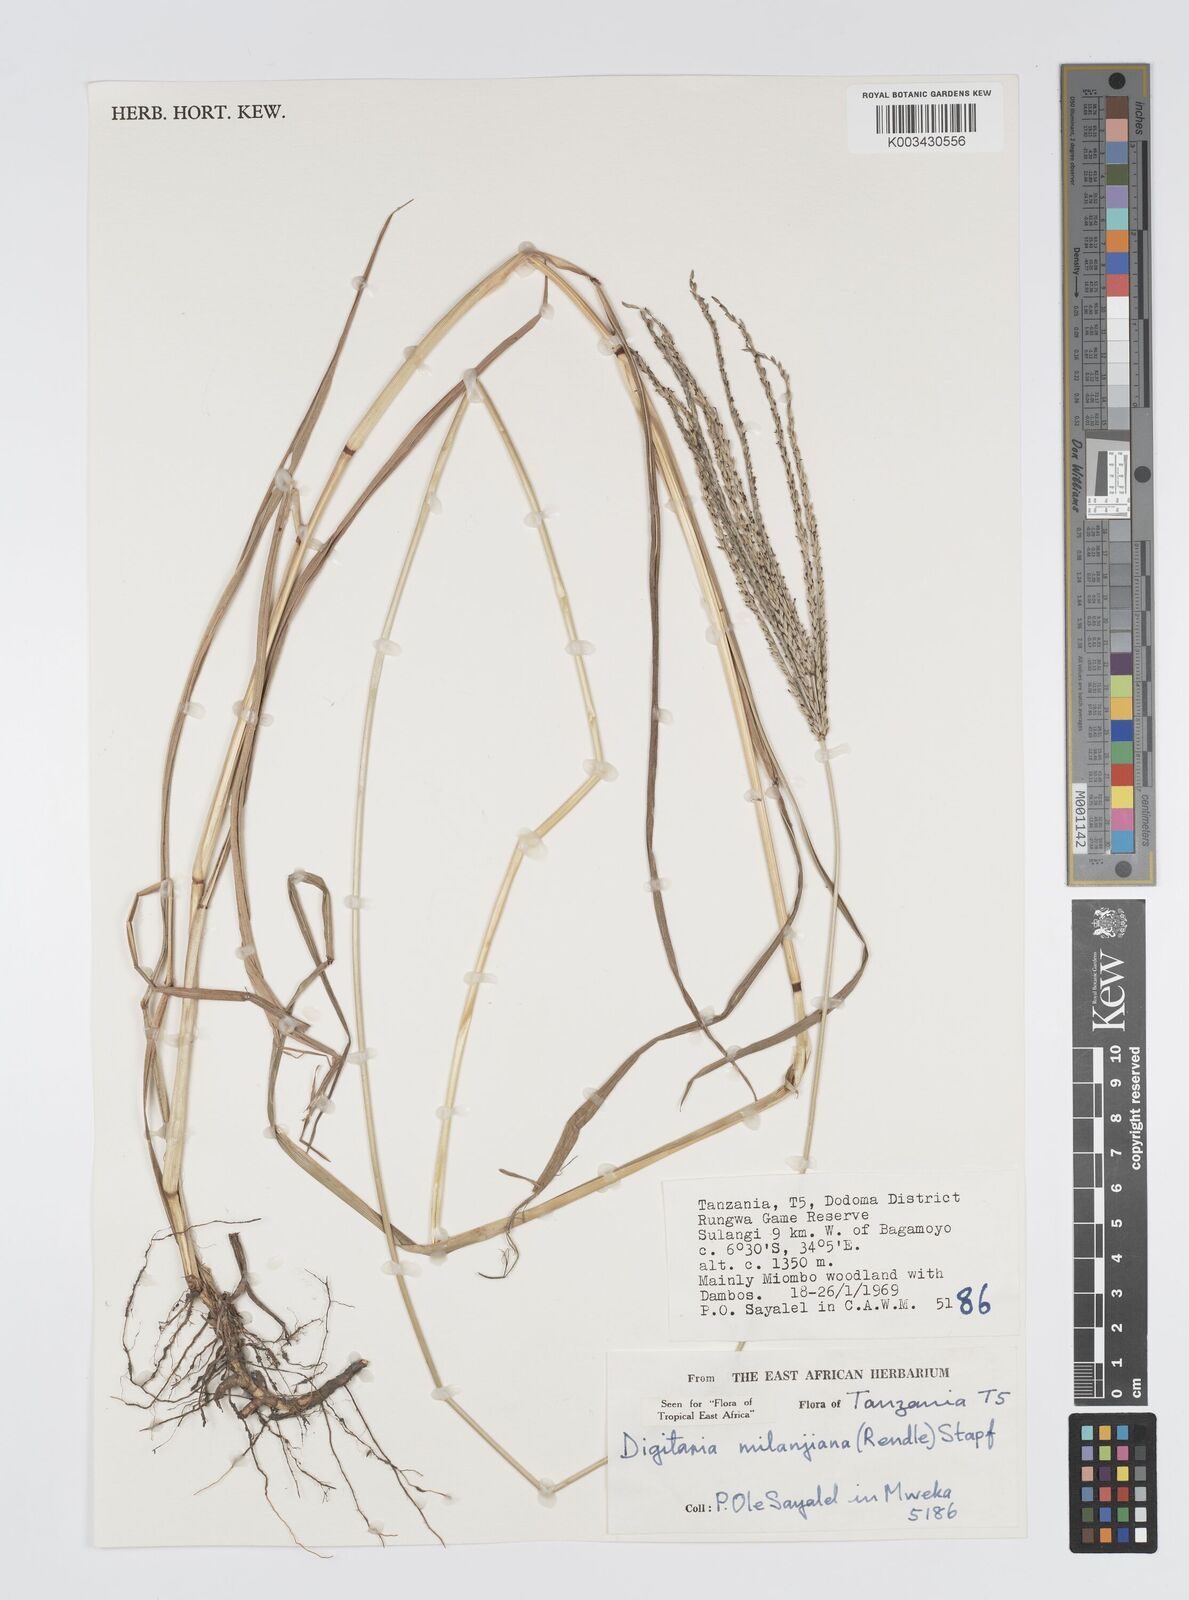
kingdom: Plantae
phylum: Tracheophyta
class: Liliopsida
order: Poales
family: Poaceae
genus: Digitaria
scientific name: Digitaria milanjiana
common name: Madagascar crabgrass
